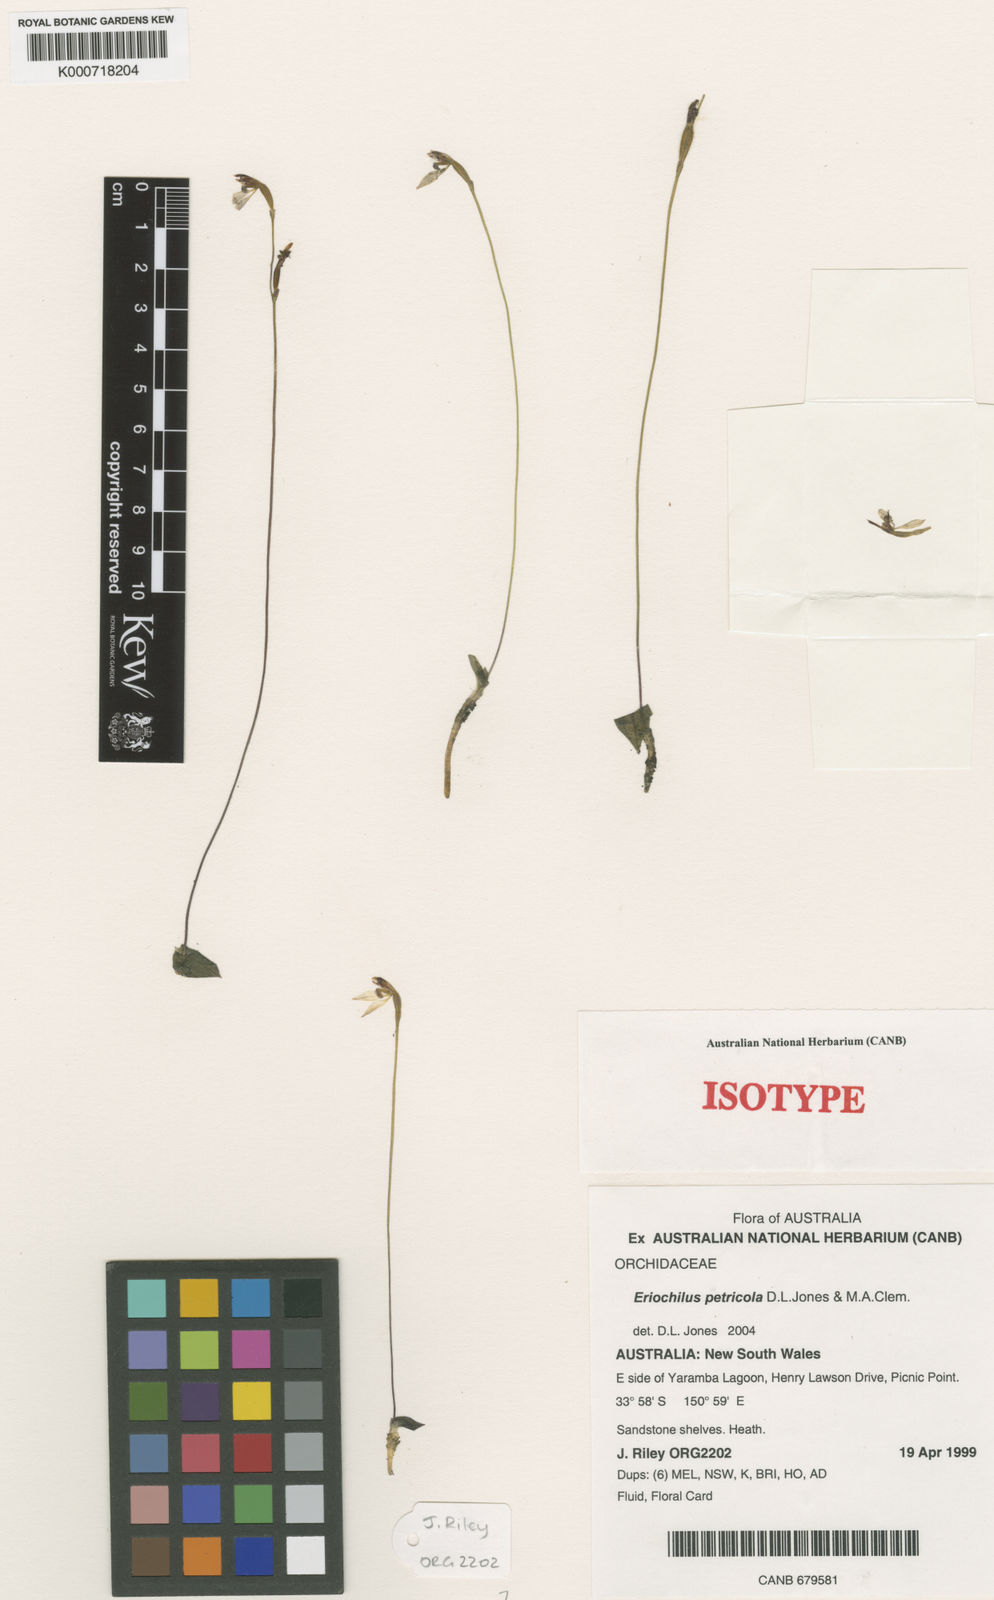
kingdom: Plantae
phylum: Tracheophyta
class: Liliopsida
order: Asparagales
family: Orchidaceae
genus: Eriochilus
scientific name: Eriochilus petricola
